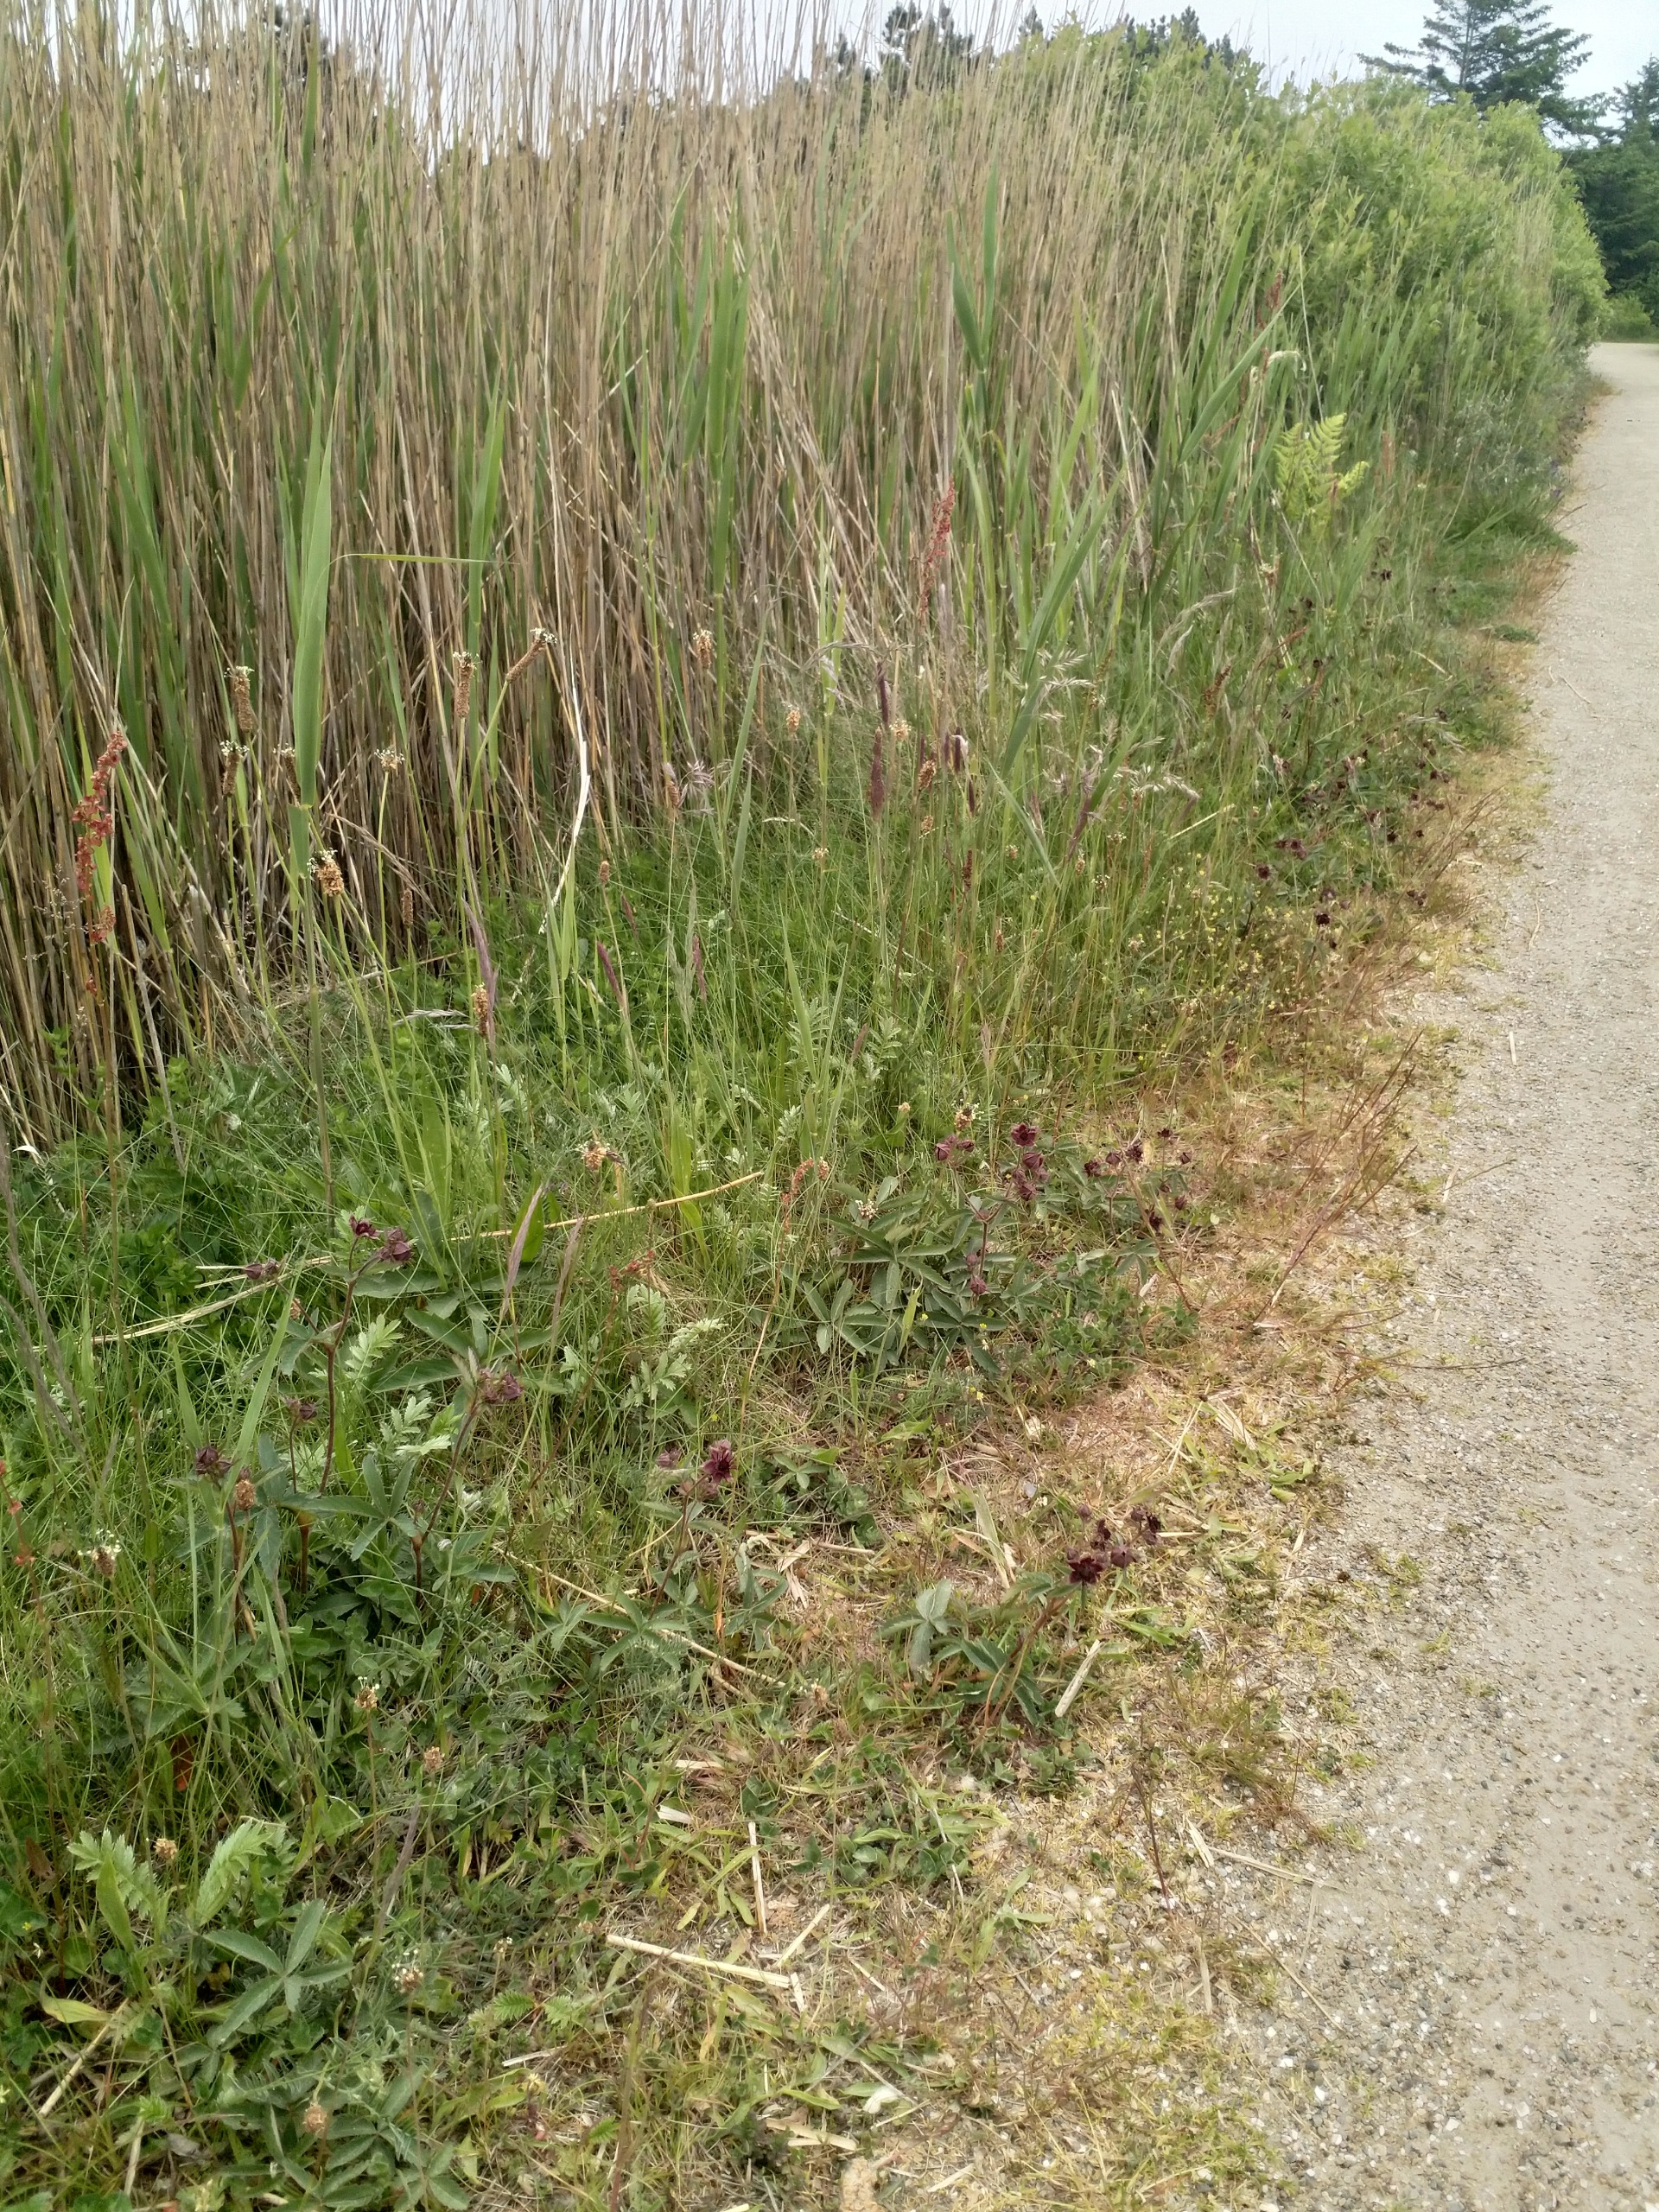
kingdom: Plantae
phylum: Tracheophyta
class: Magnoliopsida
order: Rosales
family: Rosaceae
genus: Comarum
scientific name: Comarum palustre
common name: Kragefod
